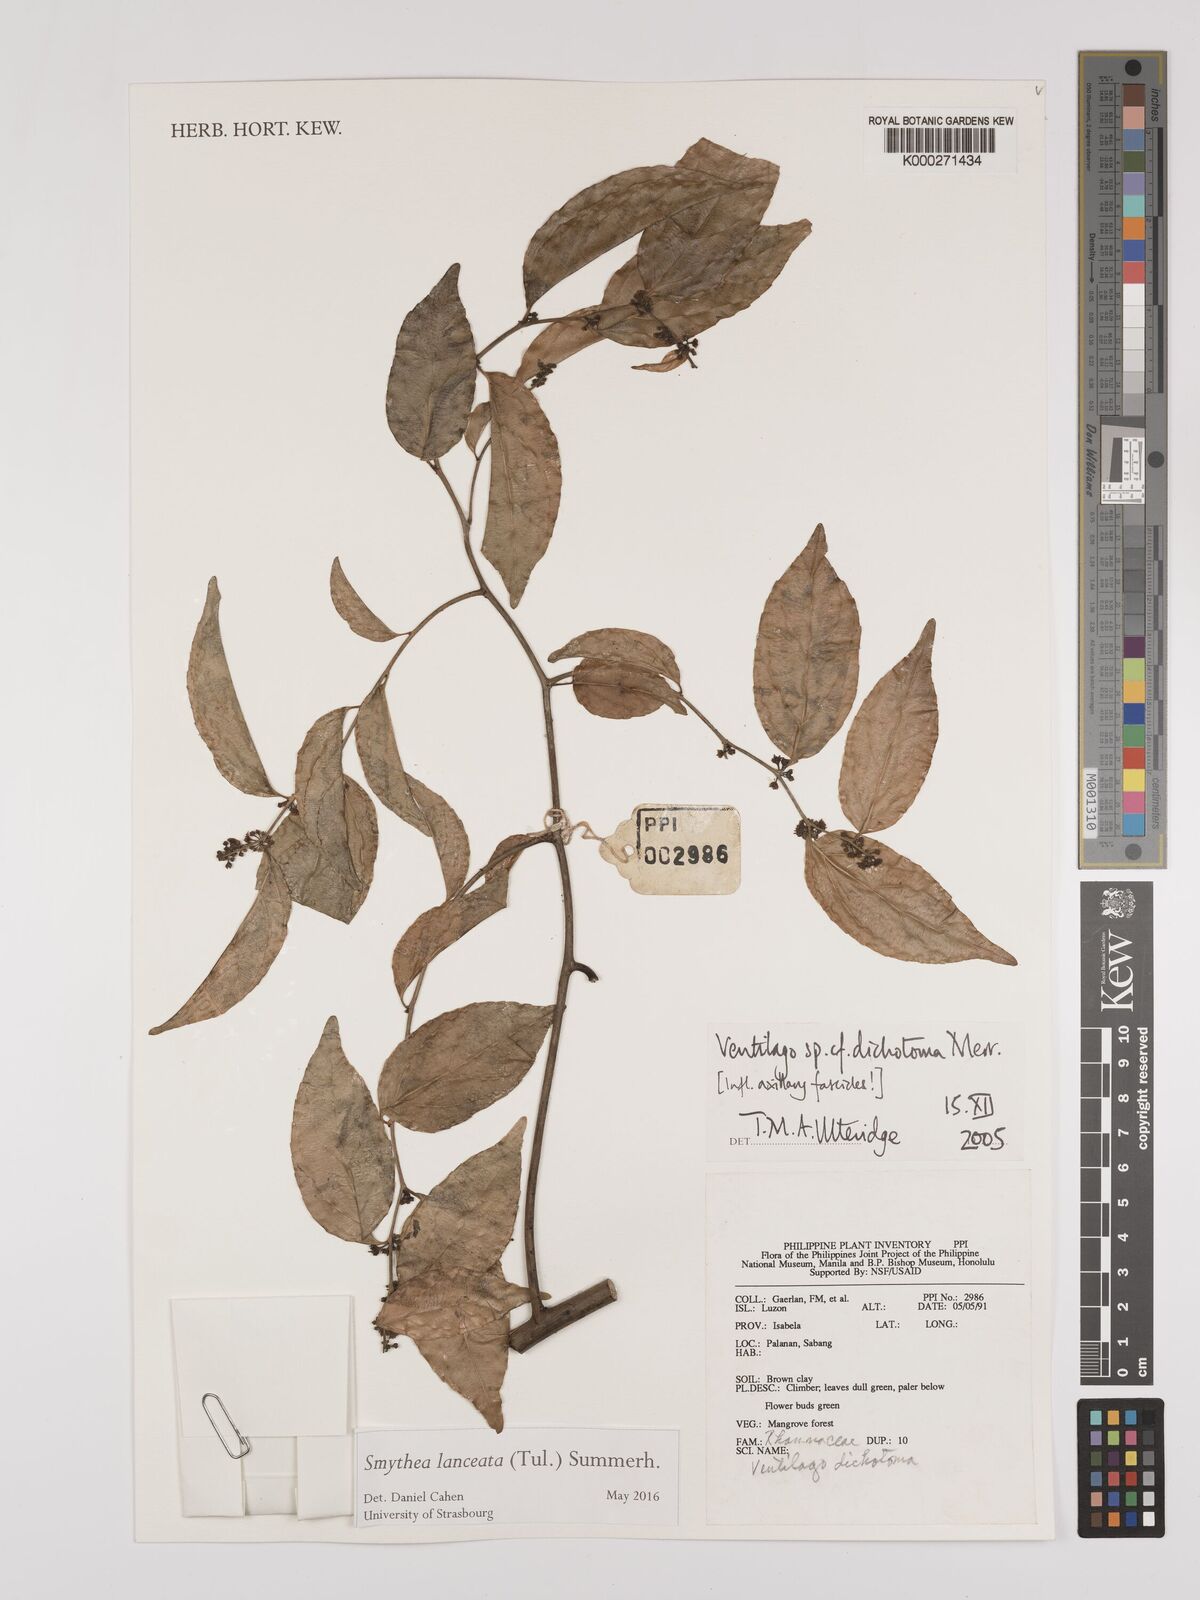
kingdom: Plantae
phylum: Tracheophyta
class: Magnoliopsida
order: Rosales
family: Rhamnaceae
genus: Ventilago
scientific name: Ventilago
